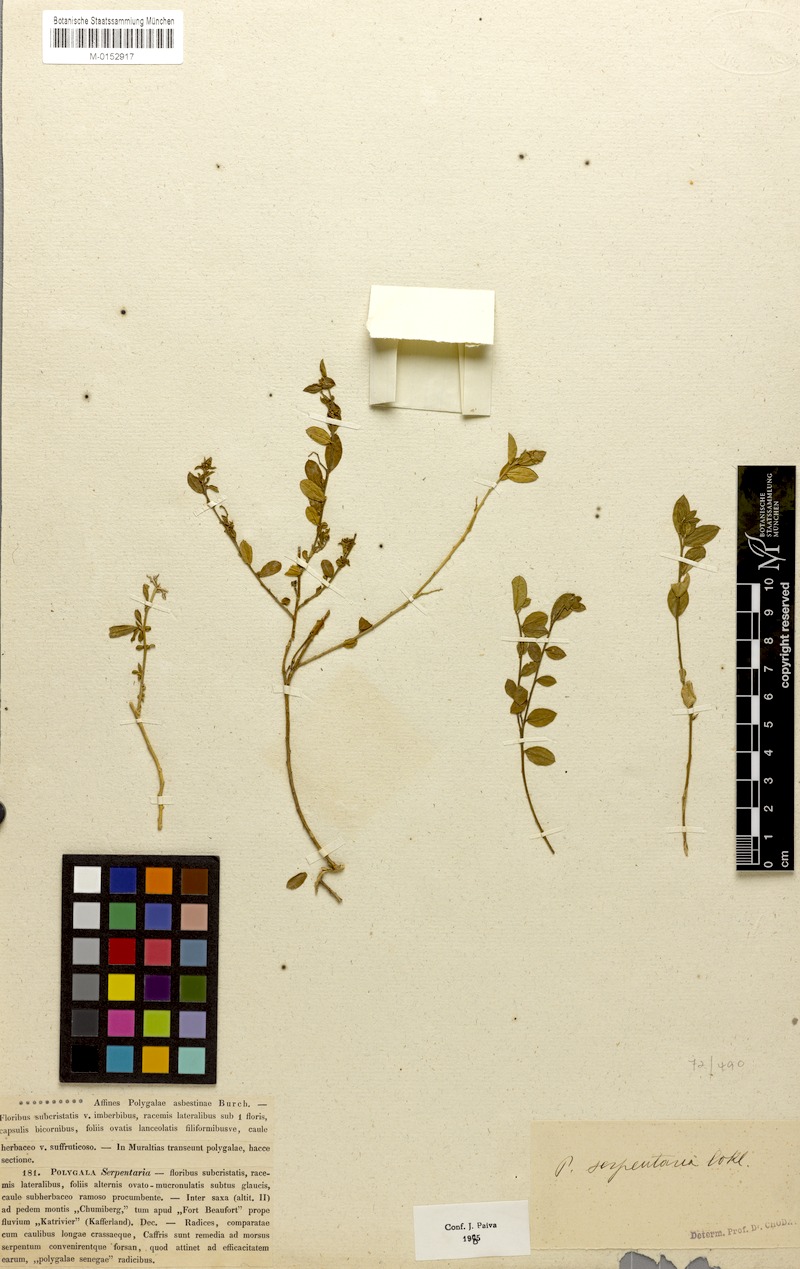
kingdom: Plantae
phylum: Tracheophyta
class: Magnoliopsida
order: Fabales
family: Polygalaceae
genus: Polygala
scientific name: Polygala serpentaria
